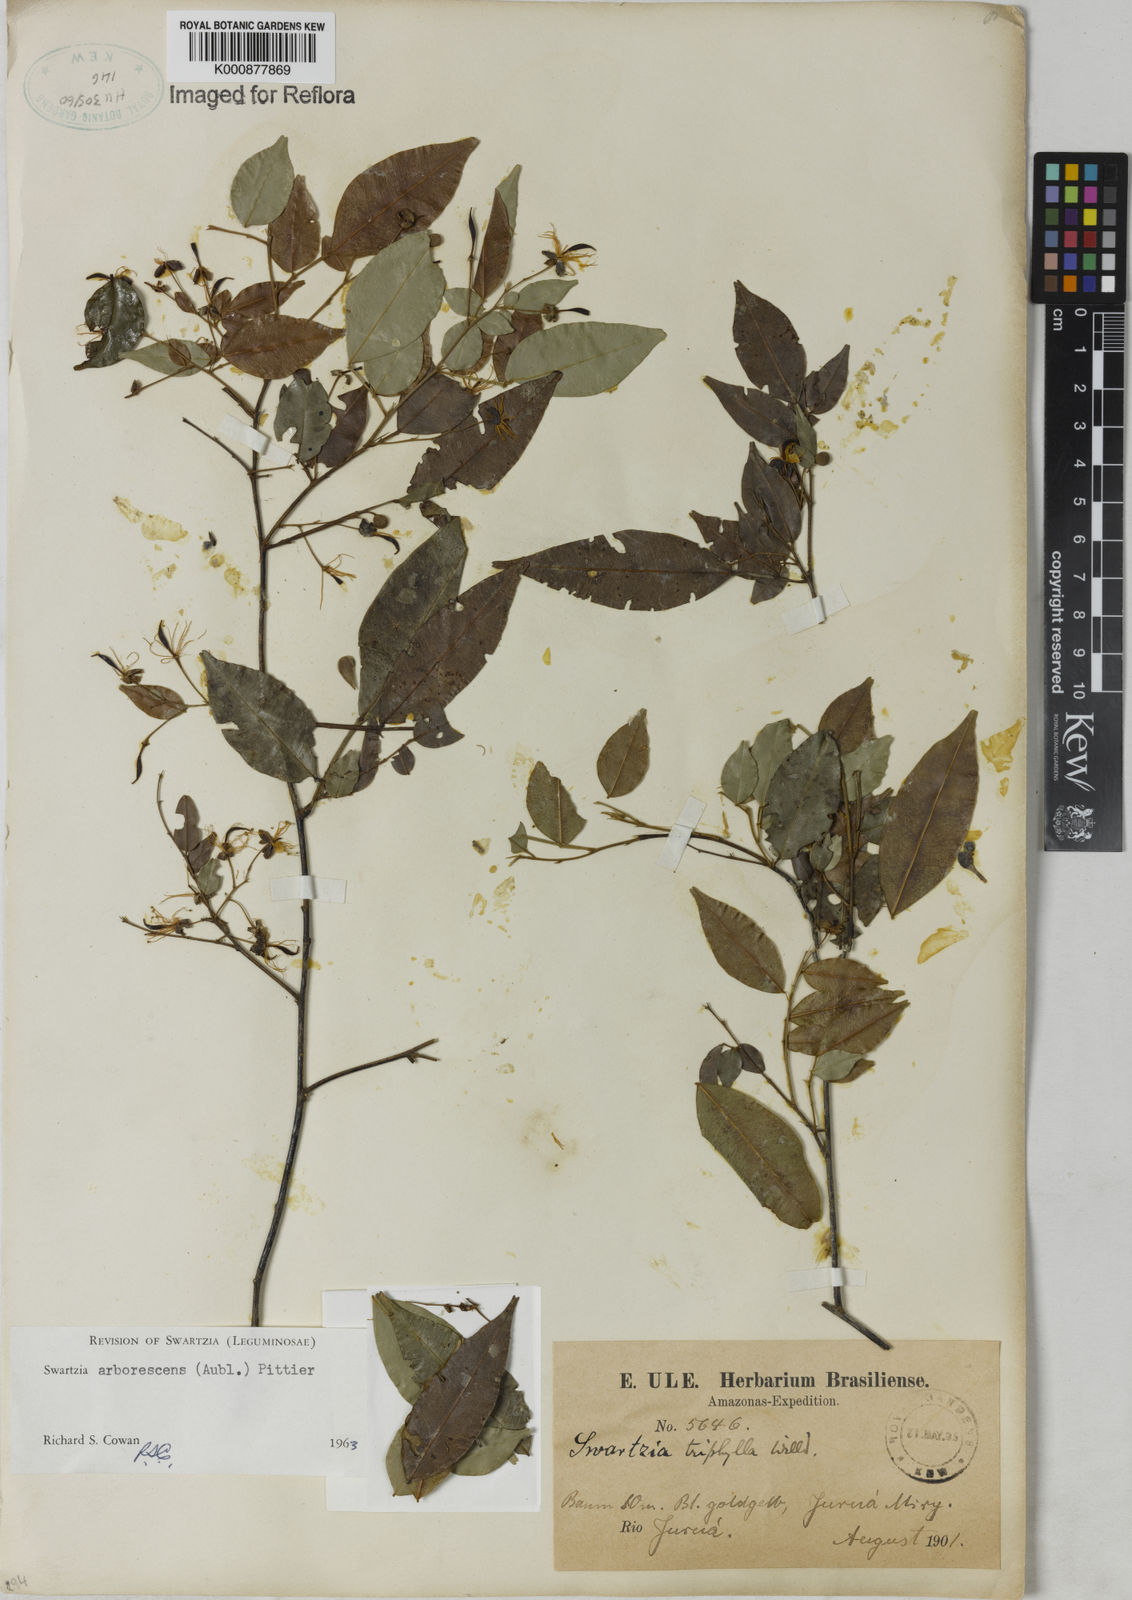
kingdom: Plantae
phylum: Tracheophyta
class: Magnoliopsida
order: Fabales
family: Fabaceae
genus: Swartzia
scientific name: Swartzia arborescens
